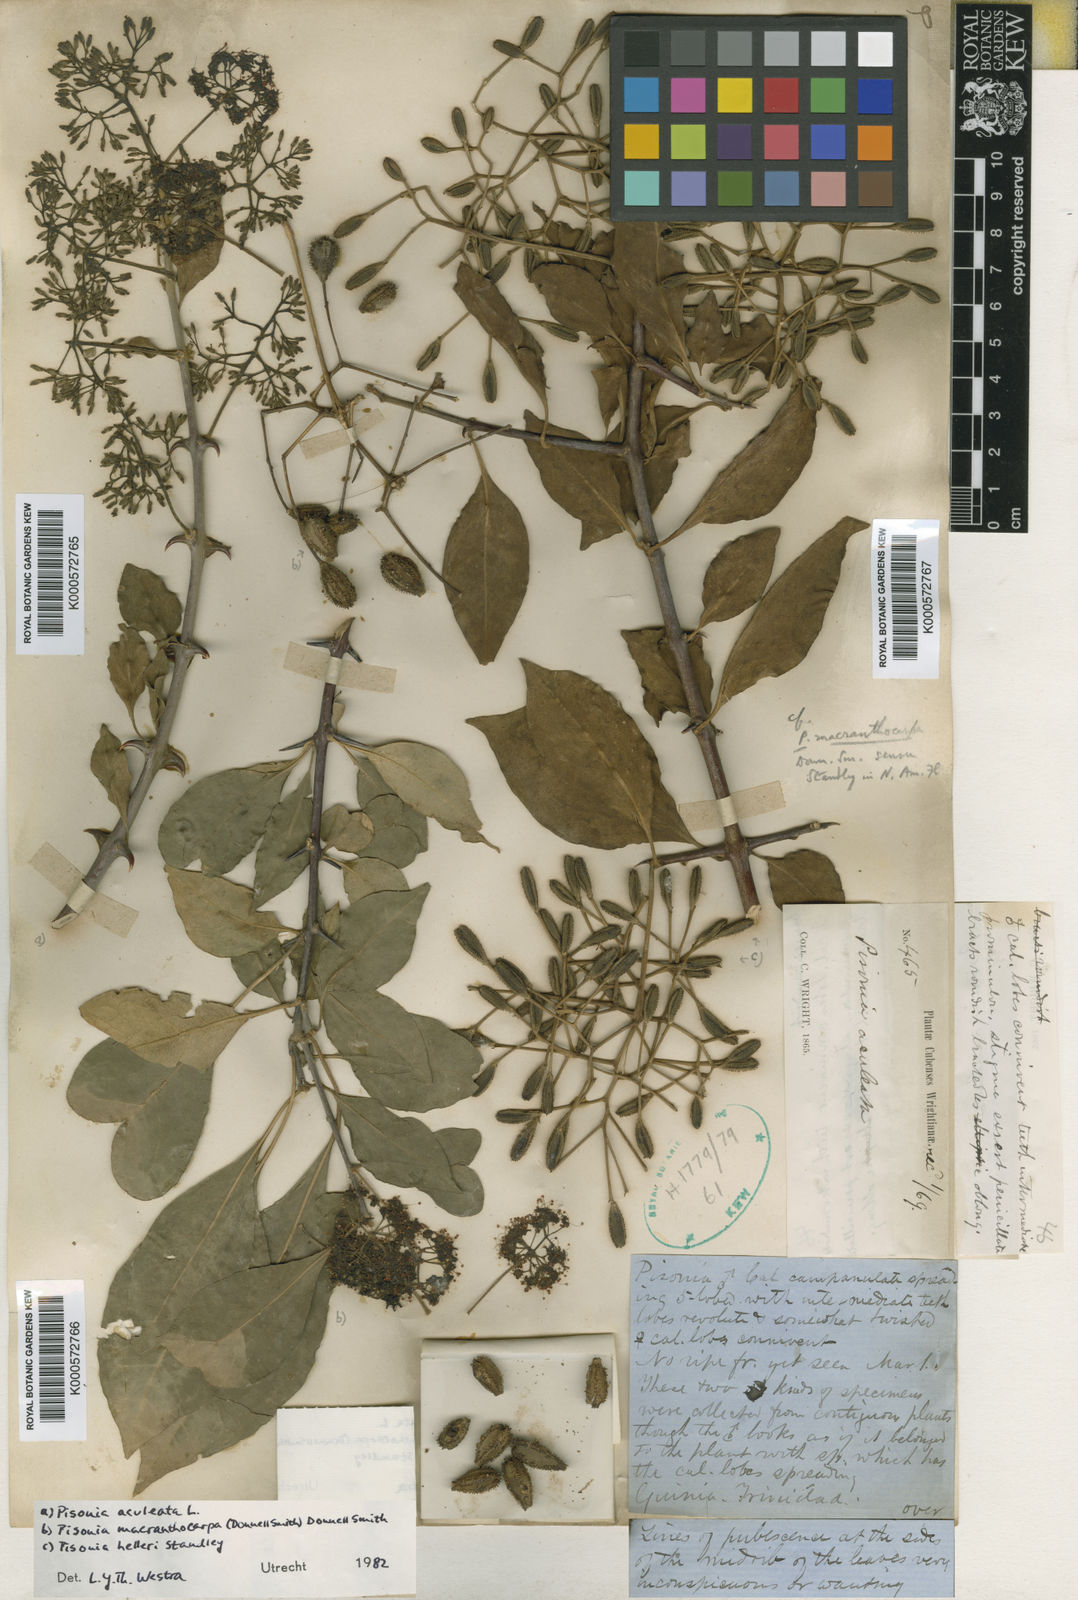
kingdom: Plantae
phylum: Tracheophyta
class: Magnoliopsida
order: Caryophyllales
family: Nyctaginaceae
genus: Pisonia
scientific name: Pisonia aculeata
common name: Cockspur vine
